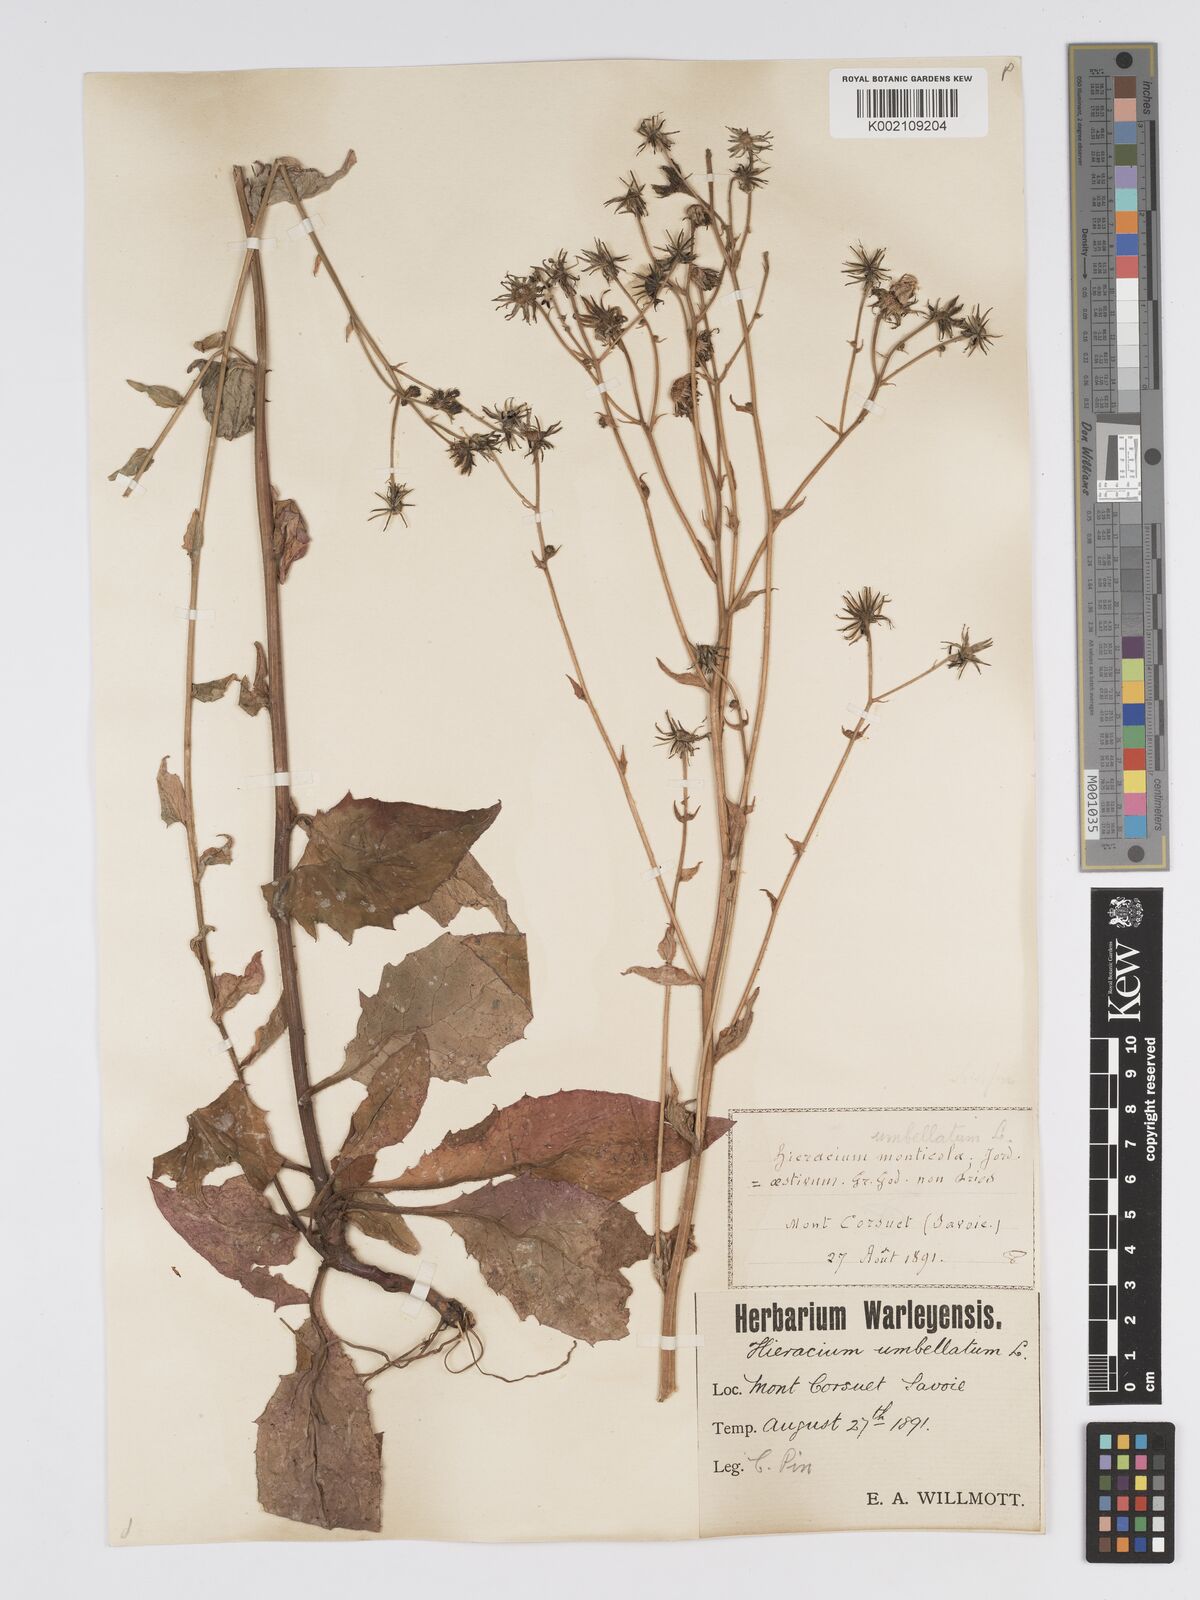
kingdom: Plantae
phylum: Tracheophyta
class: Magnoliopsida
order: Asterales
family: Asteraceae
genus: Hieracium
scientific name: Hieracium sabaudum
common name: New england hawkweed
